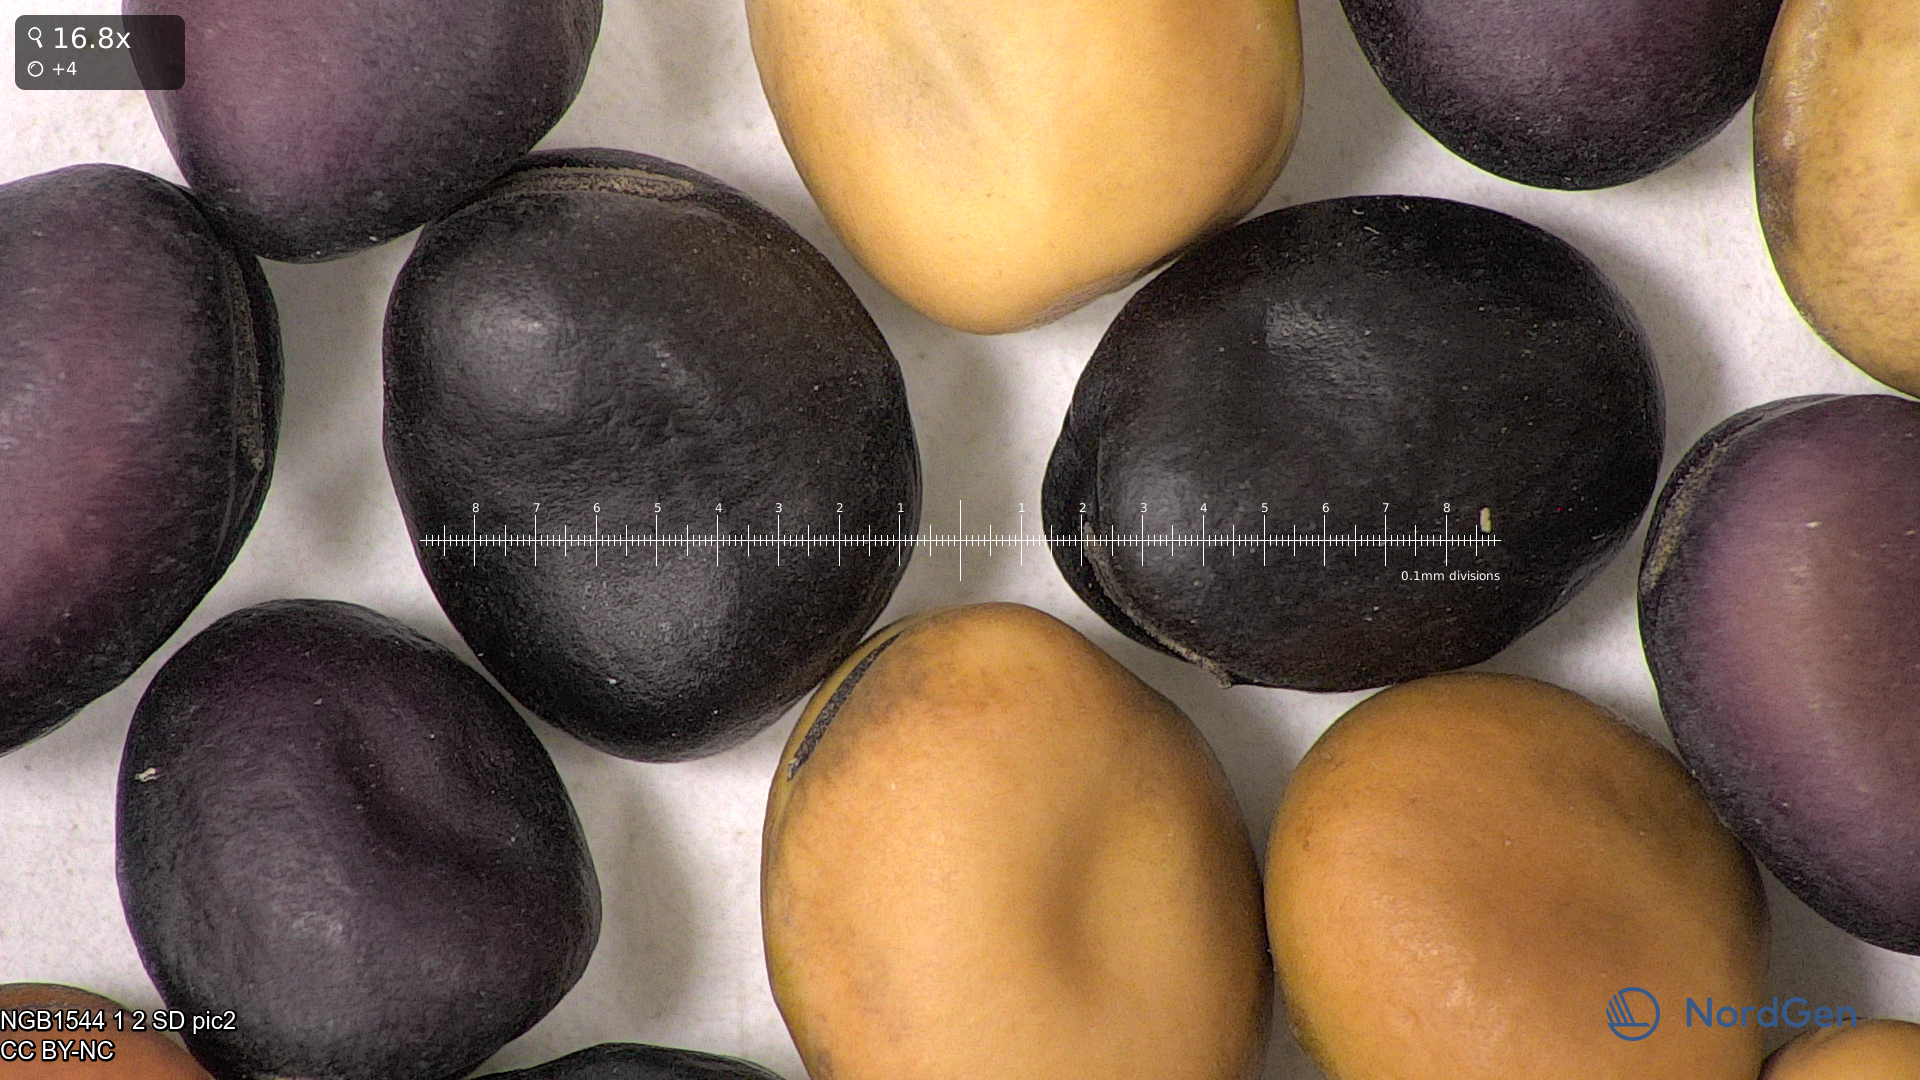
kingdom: Plantae
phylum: Tracheophyta
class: Magnoliopsida
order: Fabales
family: Fabaceae
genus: Vicia
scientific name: Vicia faba
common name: Broad bean
